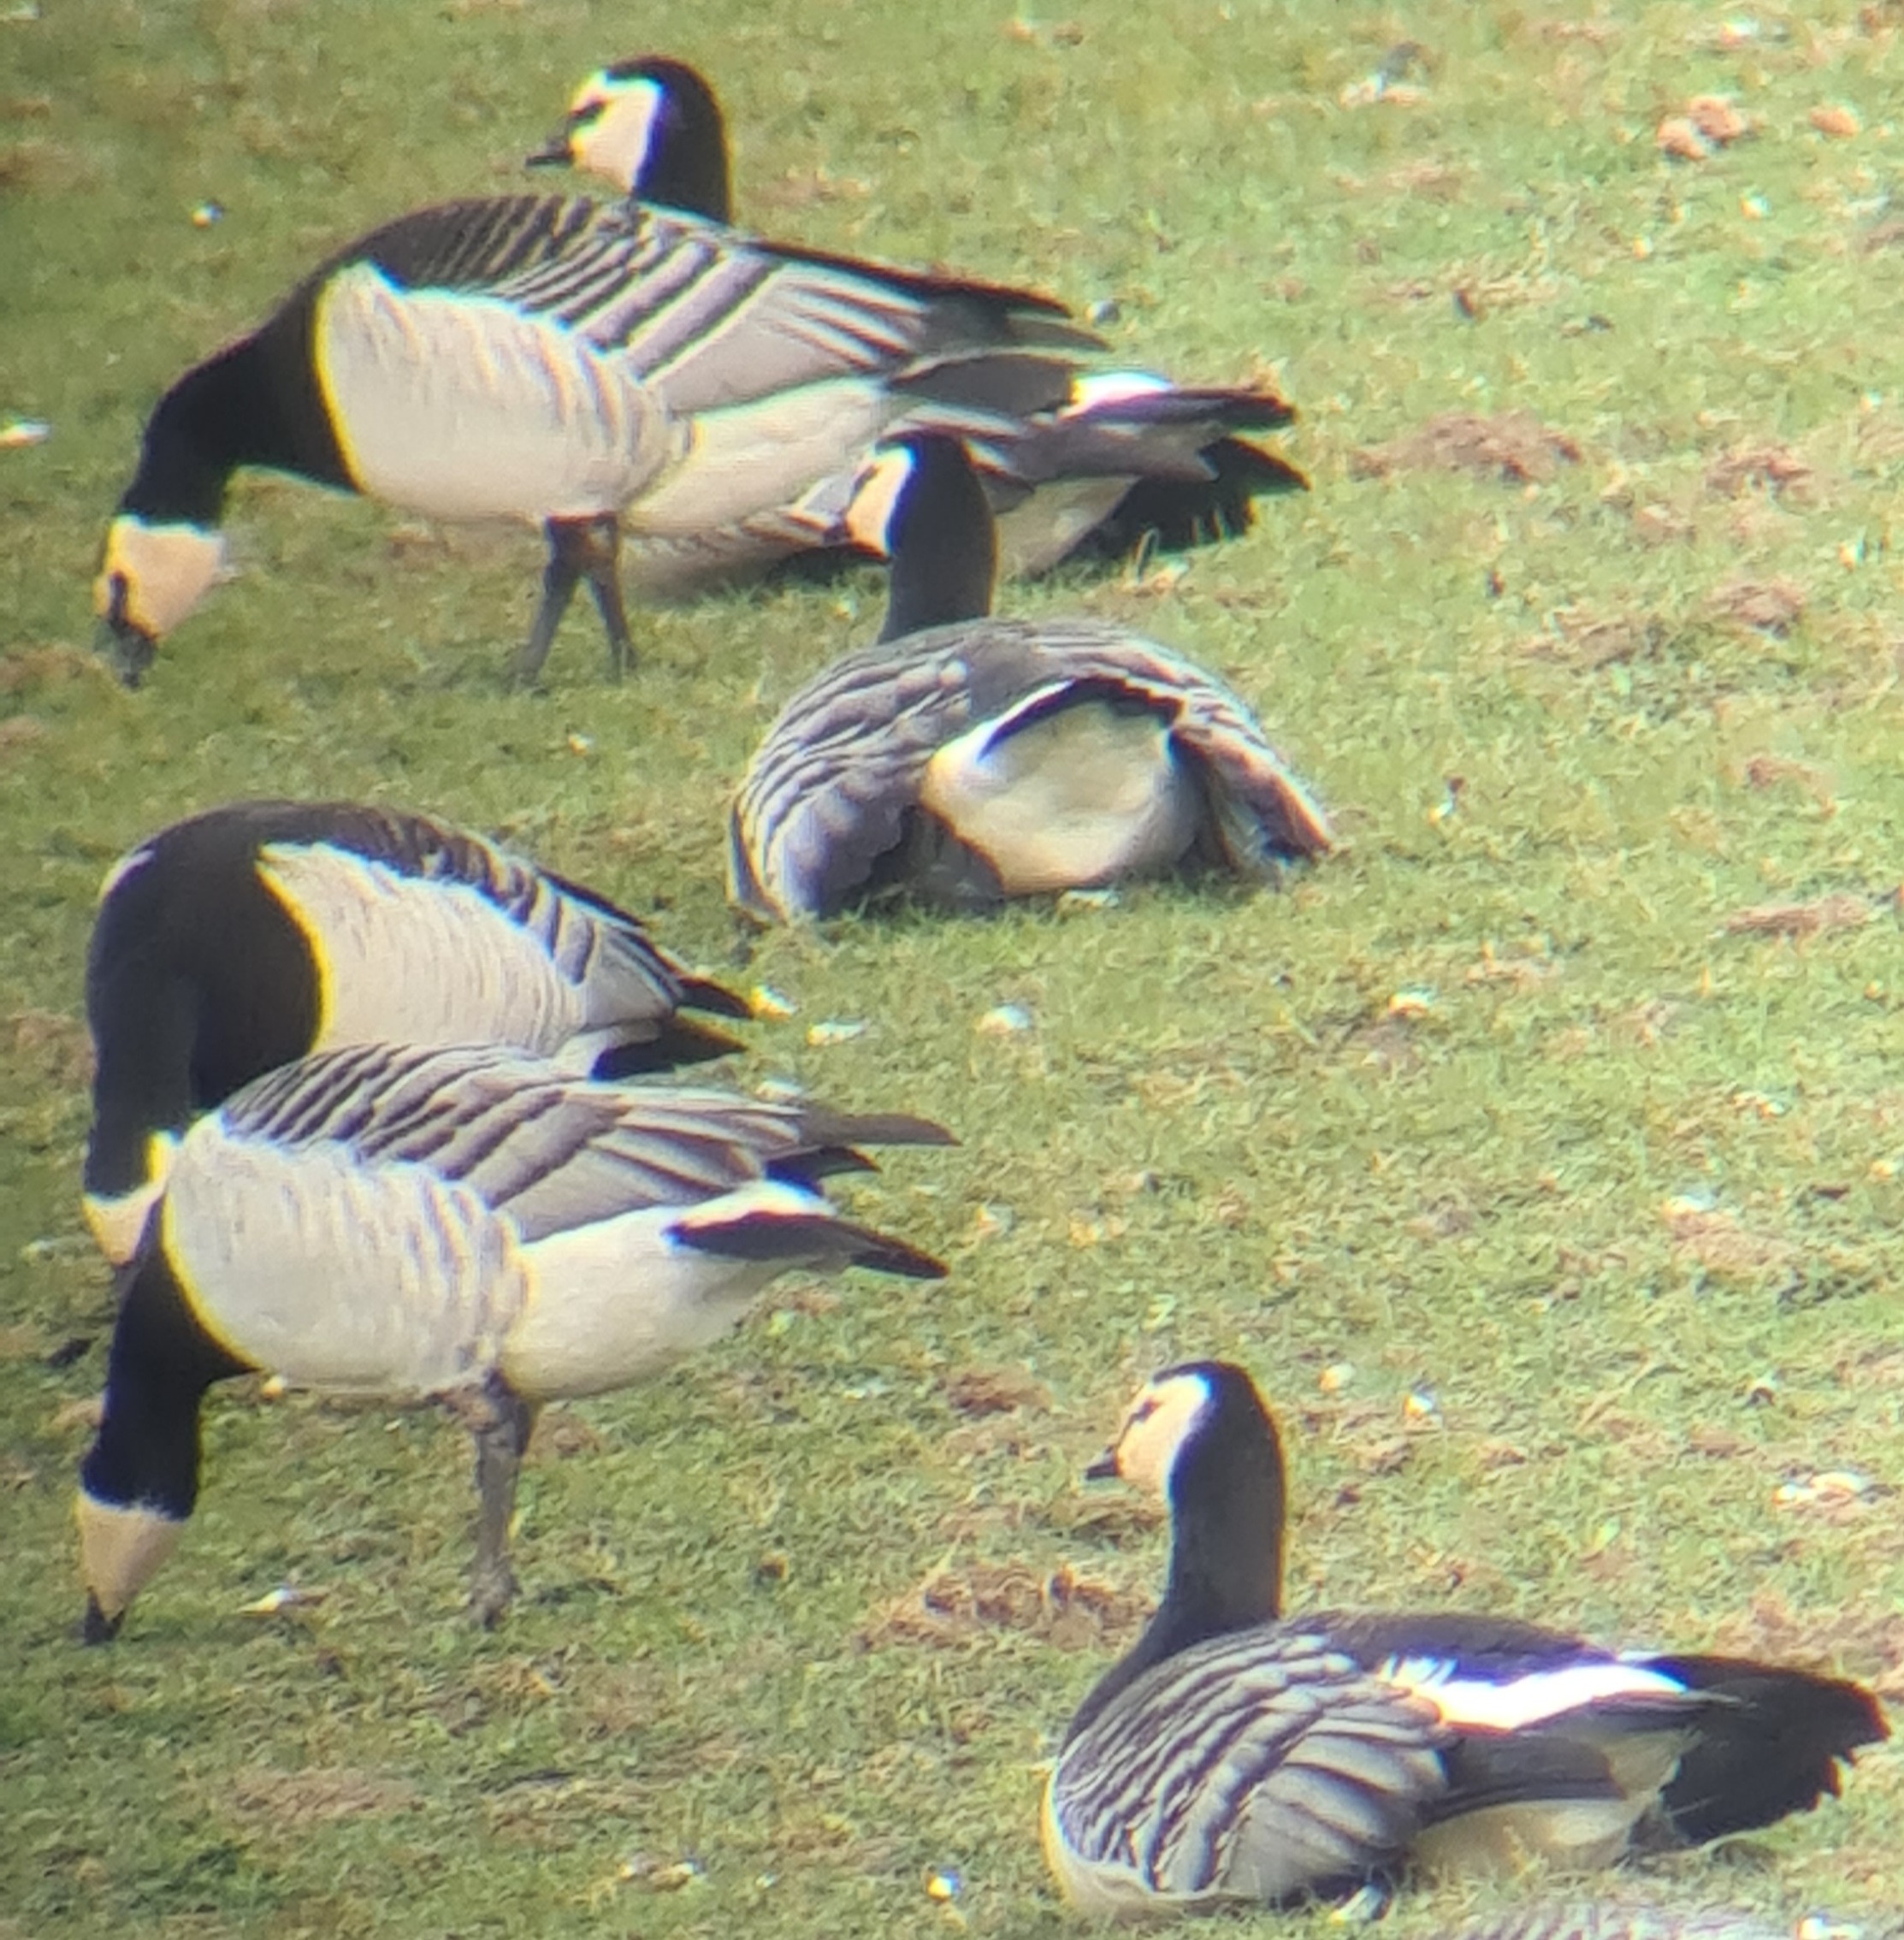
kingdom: Animalia
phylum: Chordata
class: Aves
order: Anseriformes
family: Anatidae
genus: Branta
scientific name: Branta leucopsis
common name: Bramgås
